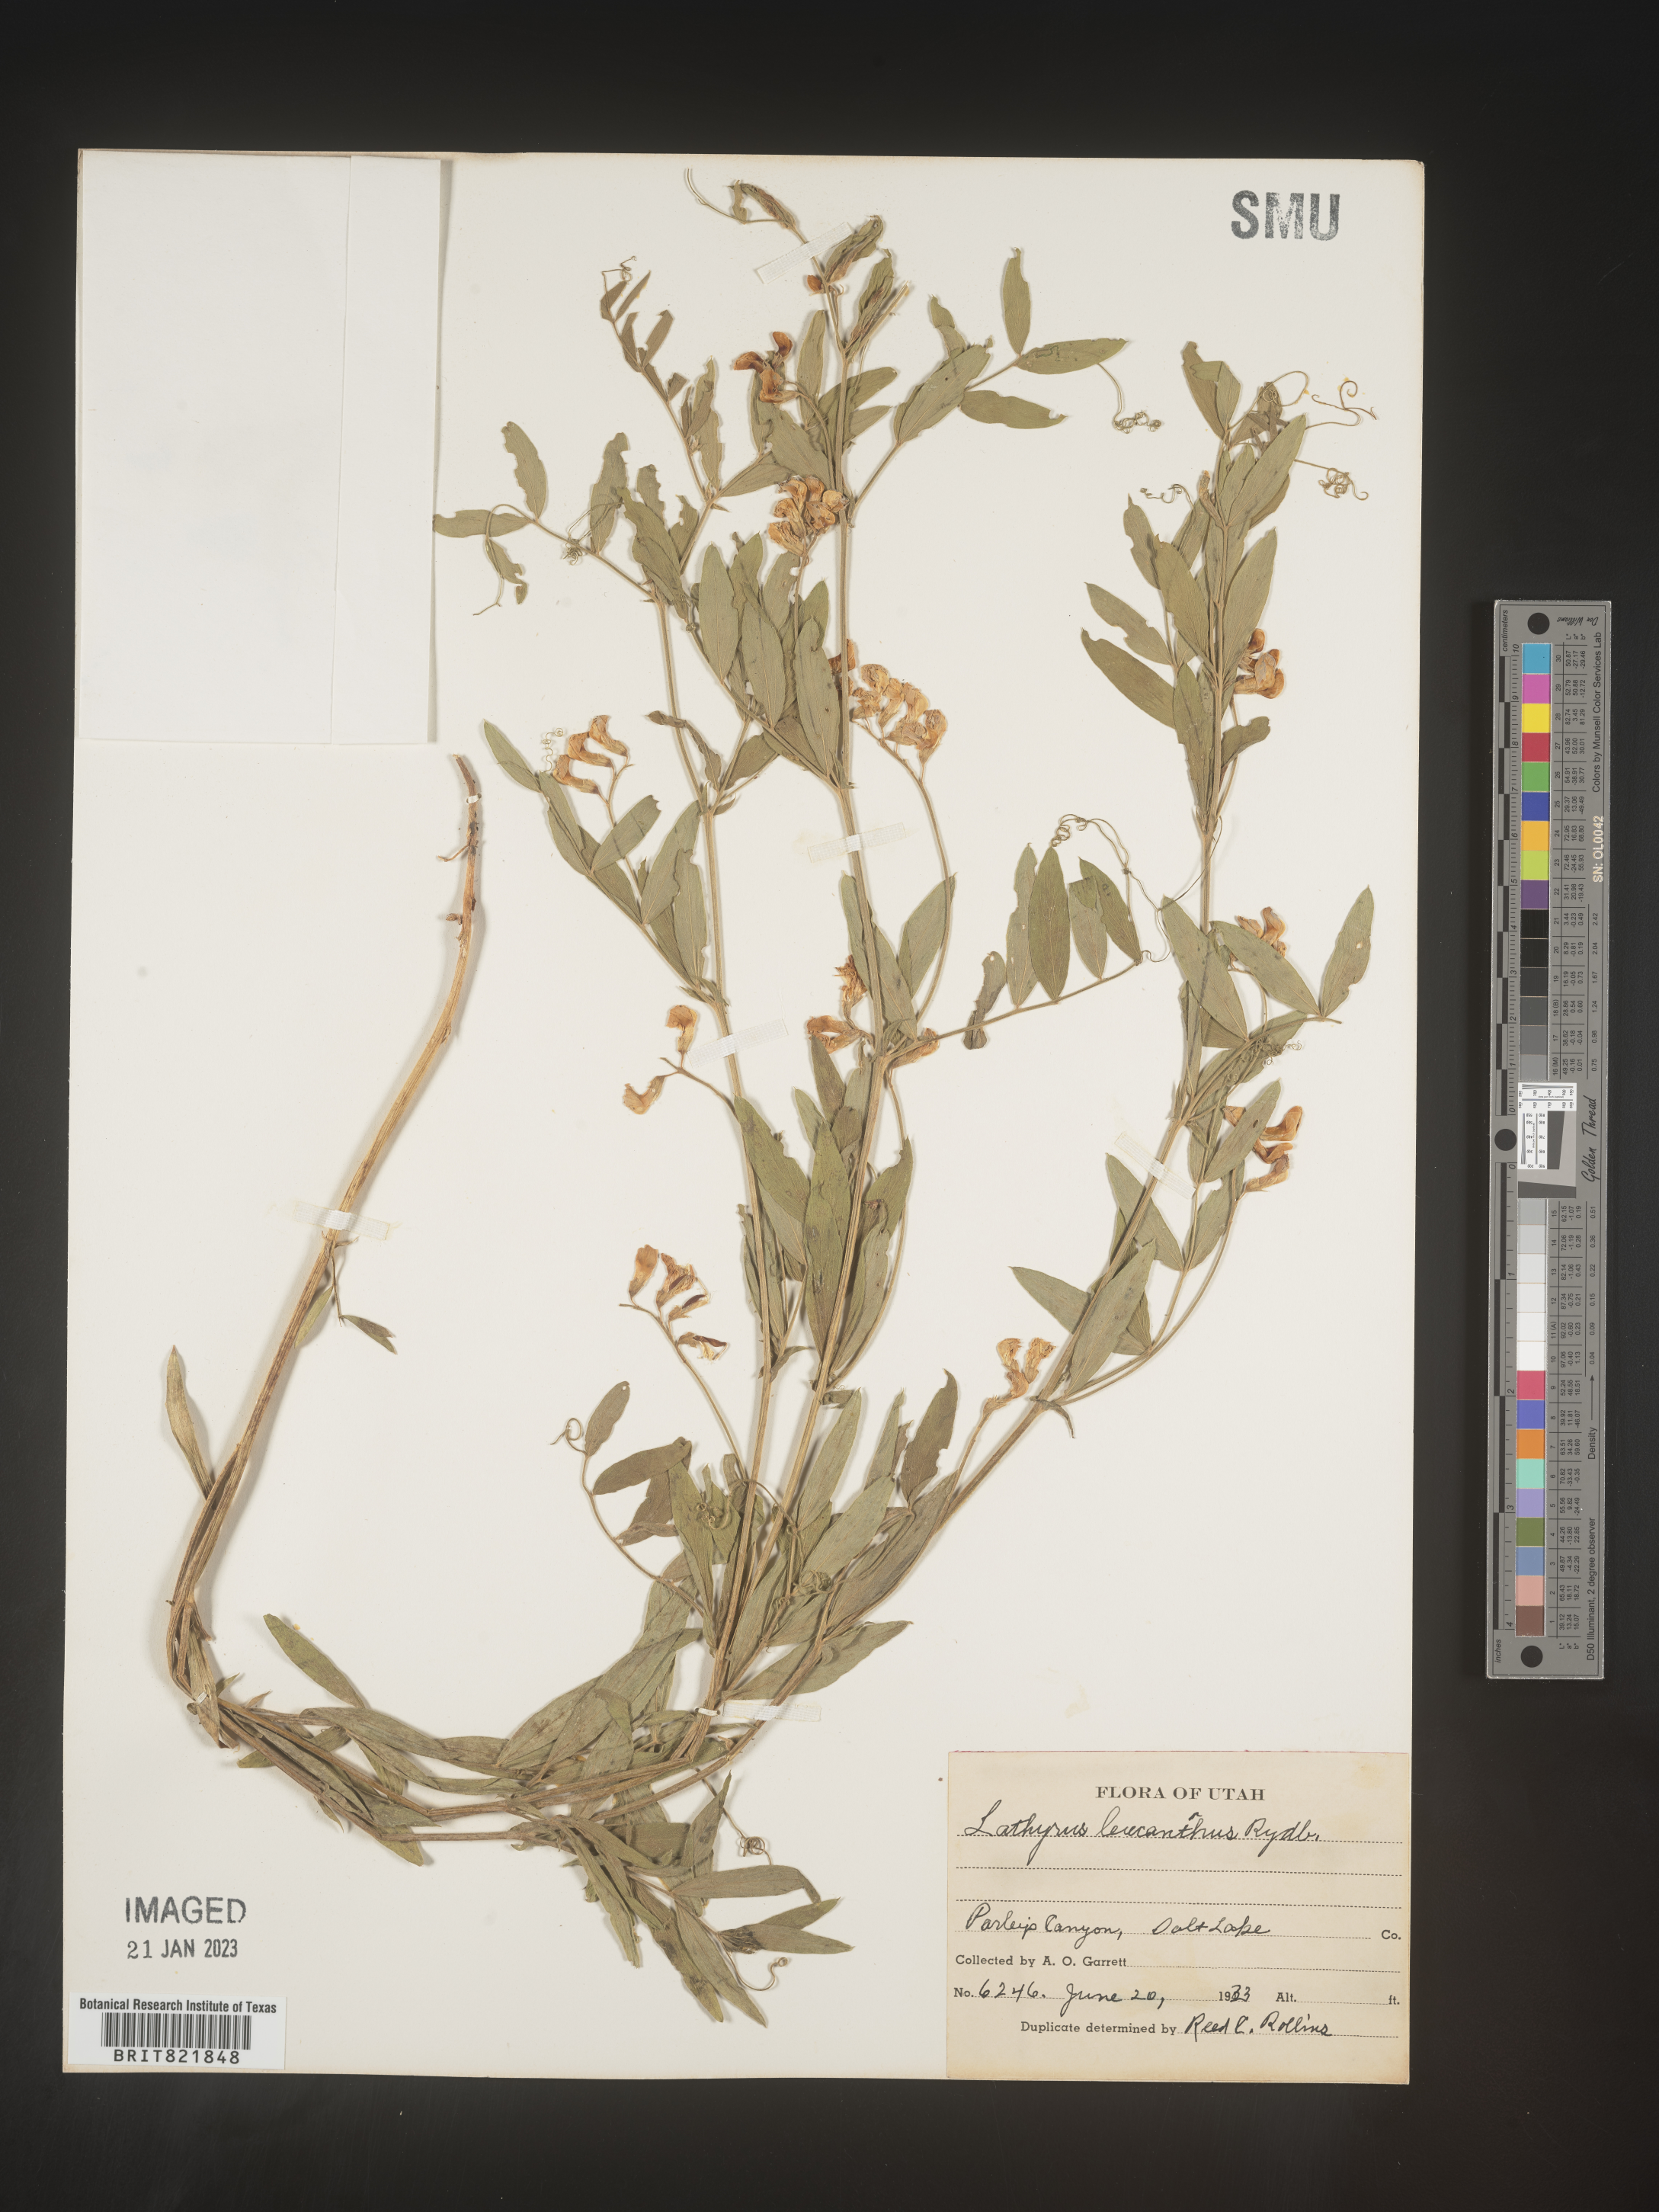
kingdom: Plantae
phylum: Tracheophyta
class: Magnoliopsida
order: Fabales
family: Fabaceae
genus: Lathyrus
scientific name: Lathyrus
